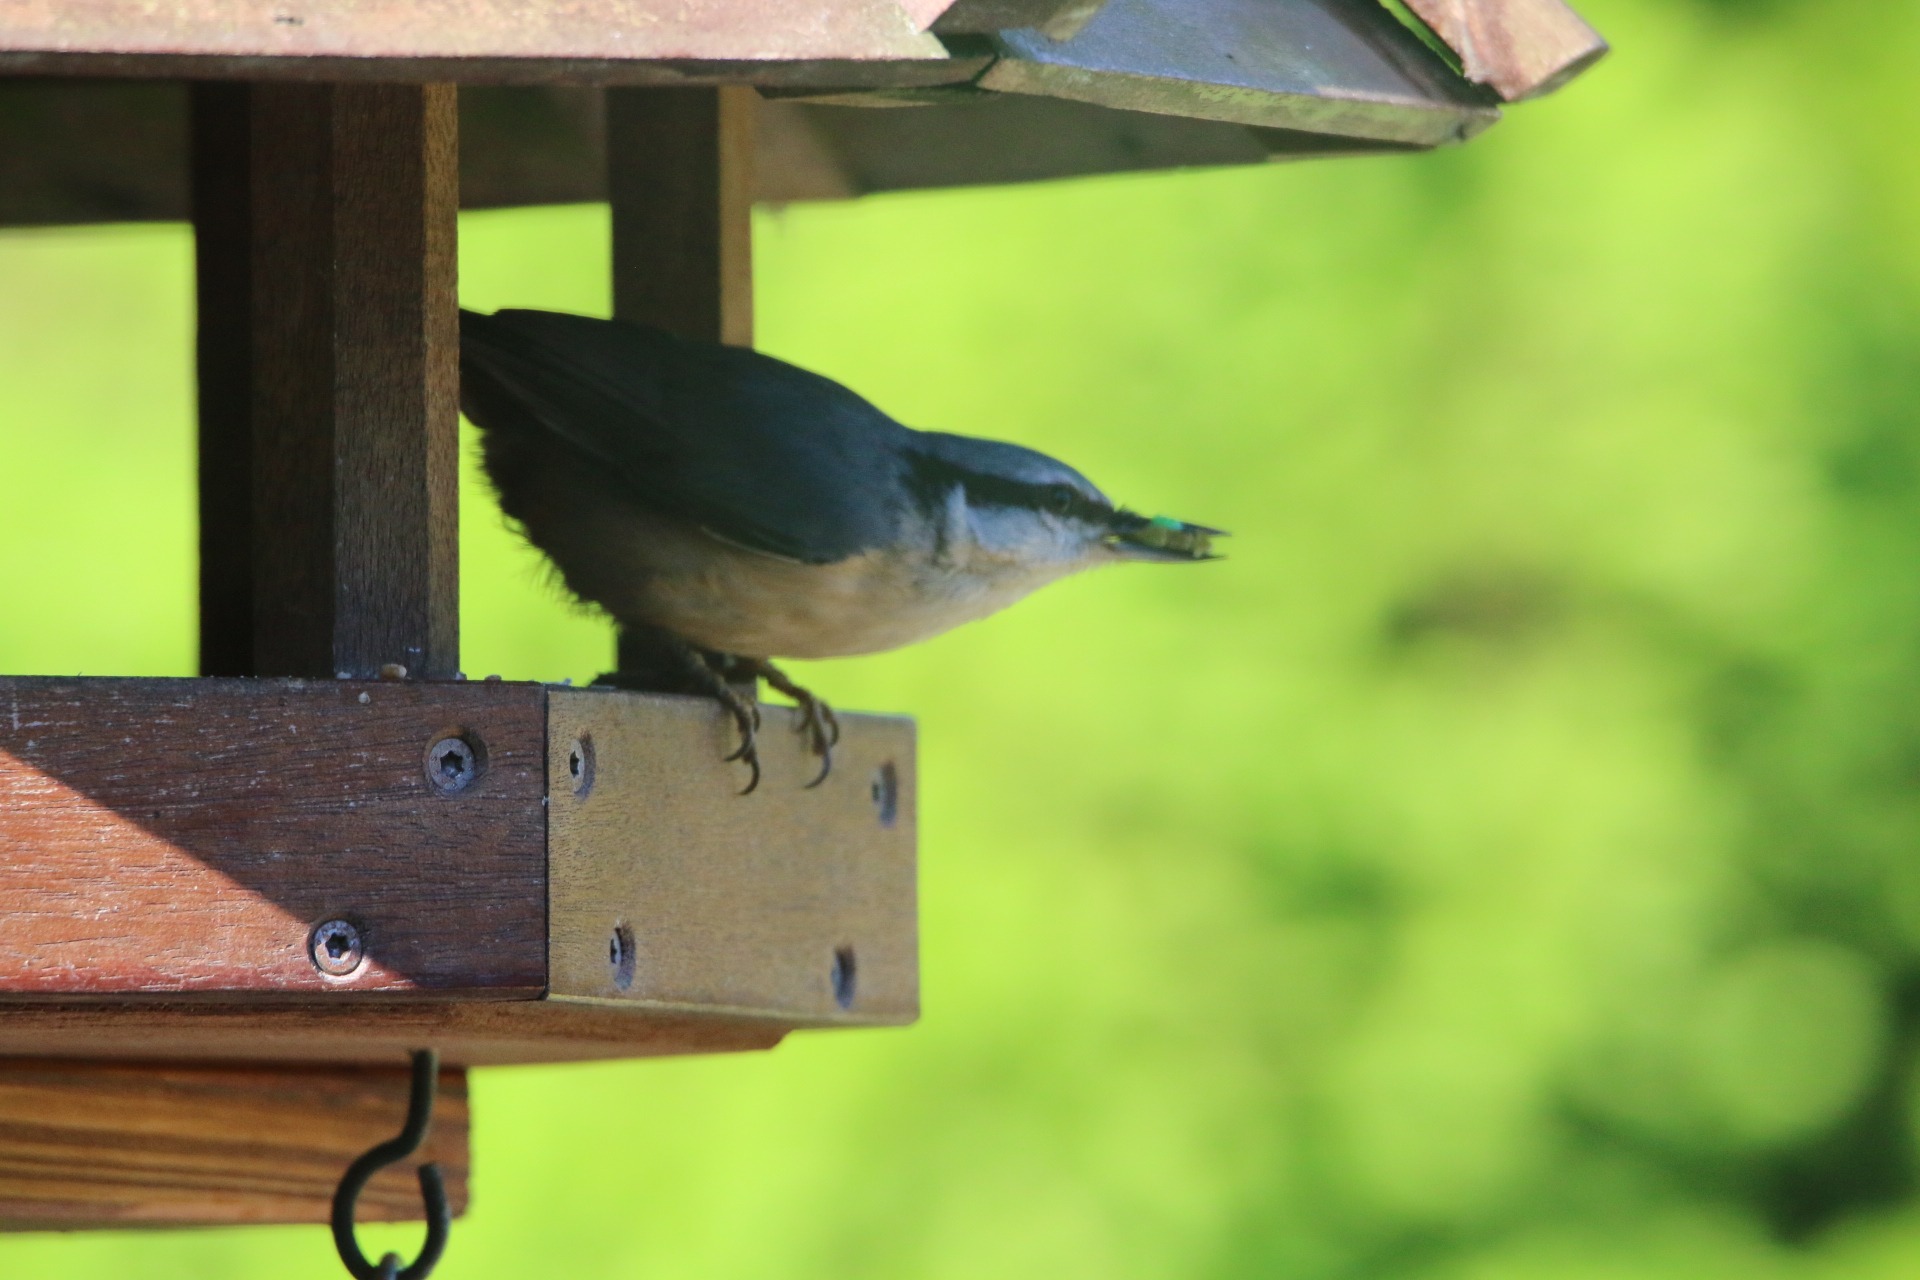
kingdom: Animalia
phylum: Chordata
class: Aves
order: Passeriformes
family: Sittidae
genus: Sitta
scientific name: Sitta europaea
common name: Spætmejse
